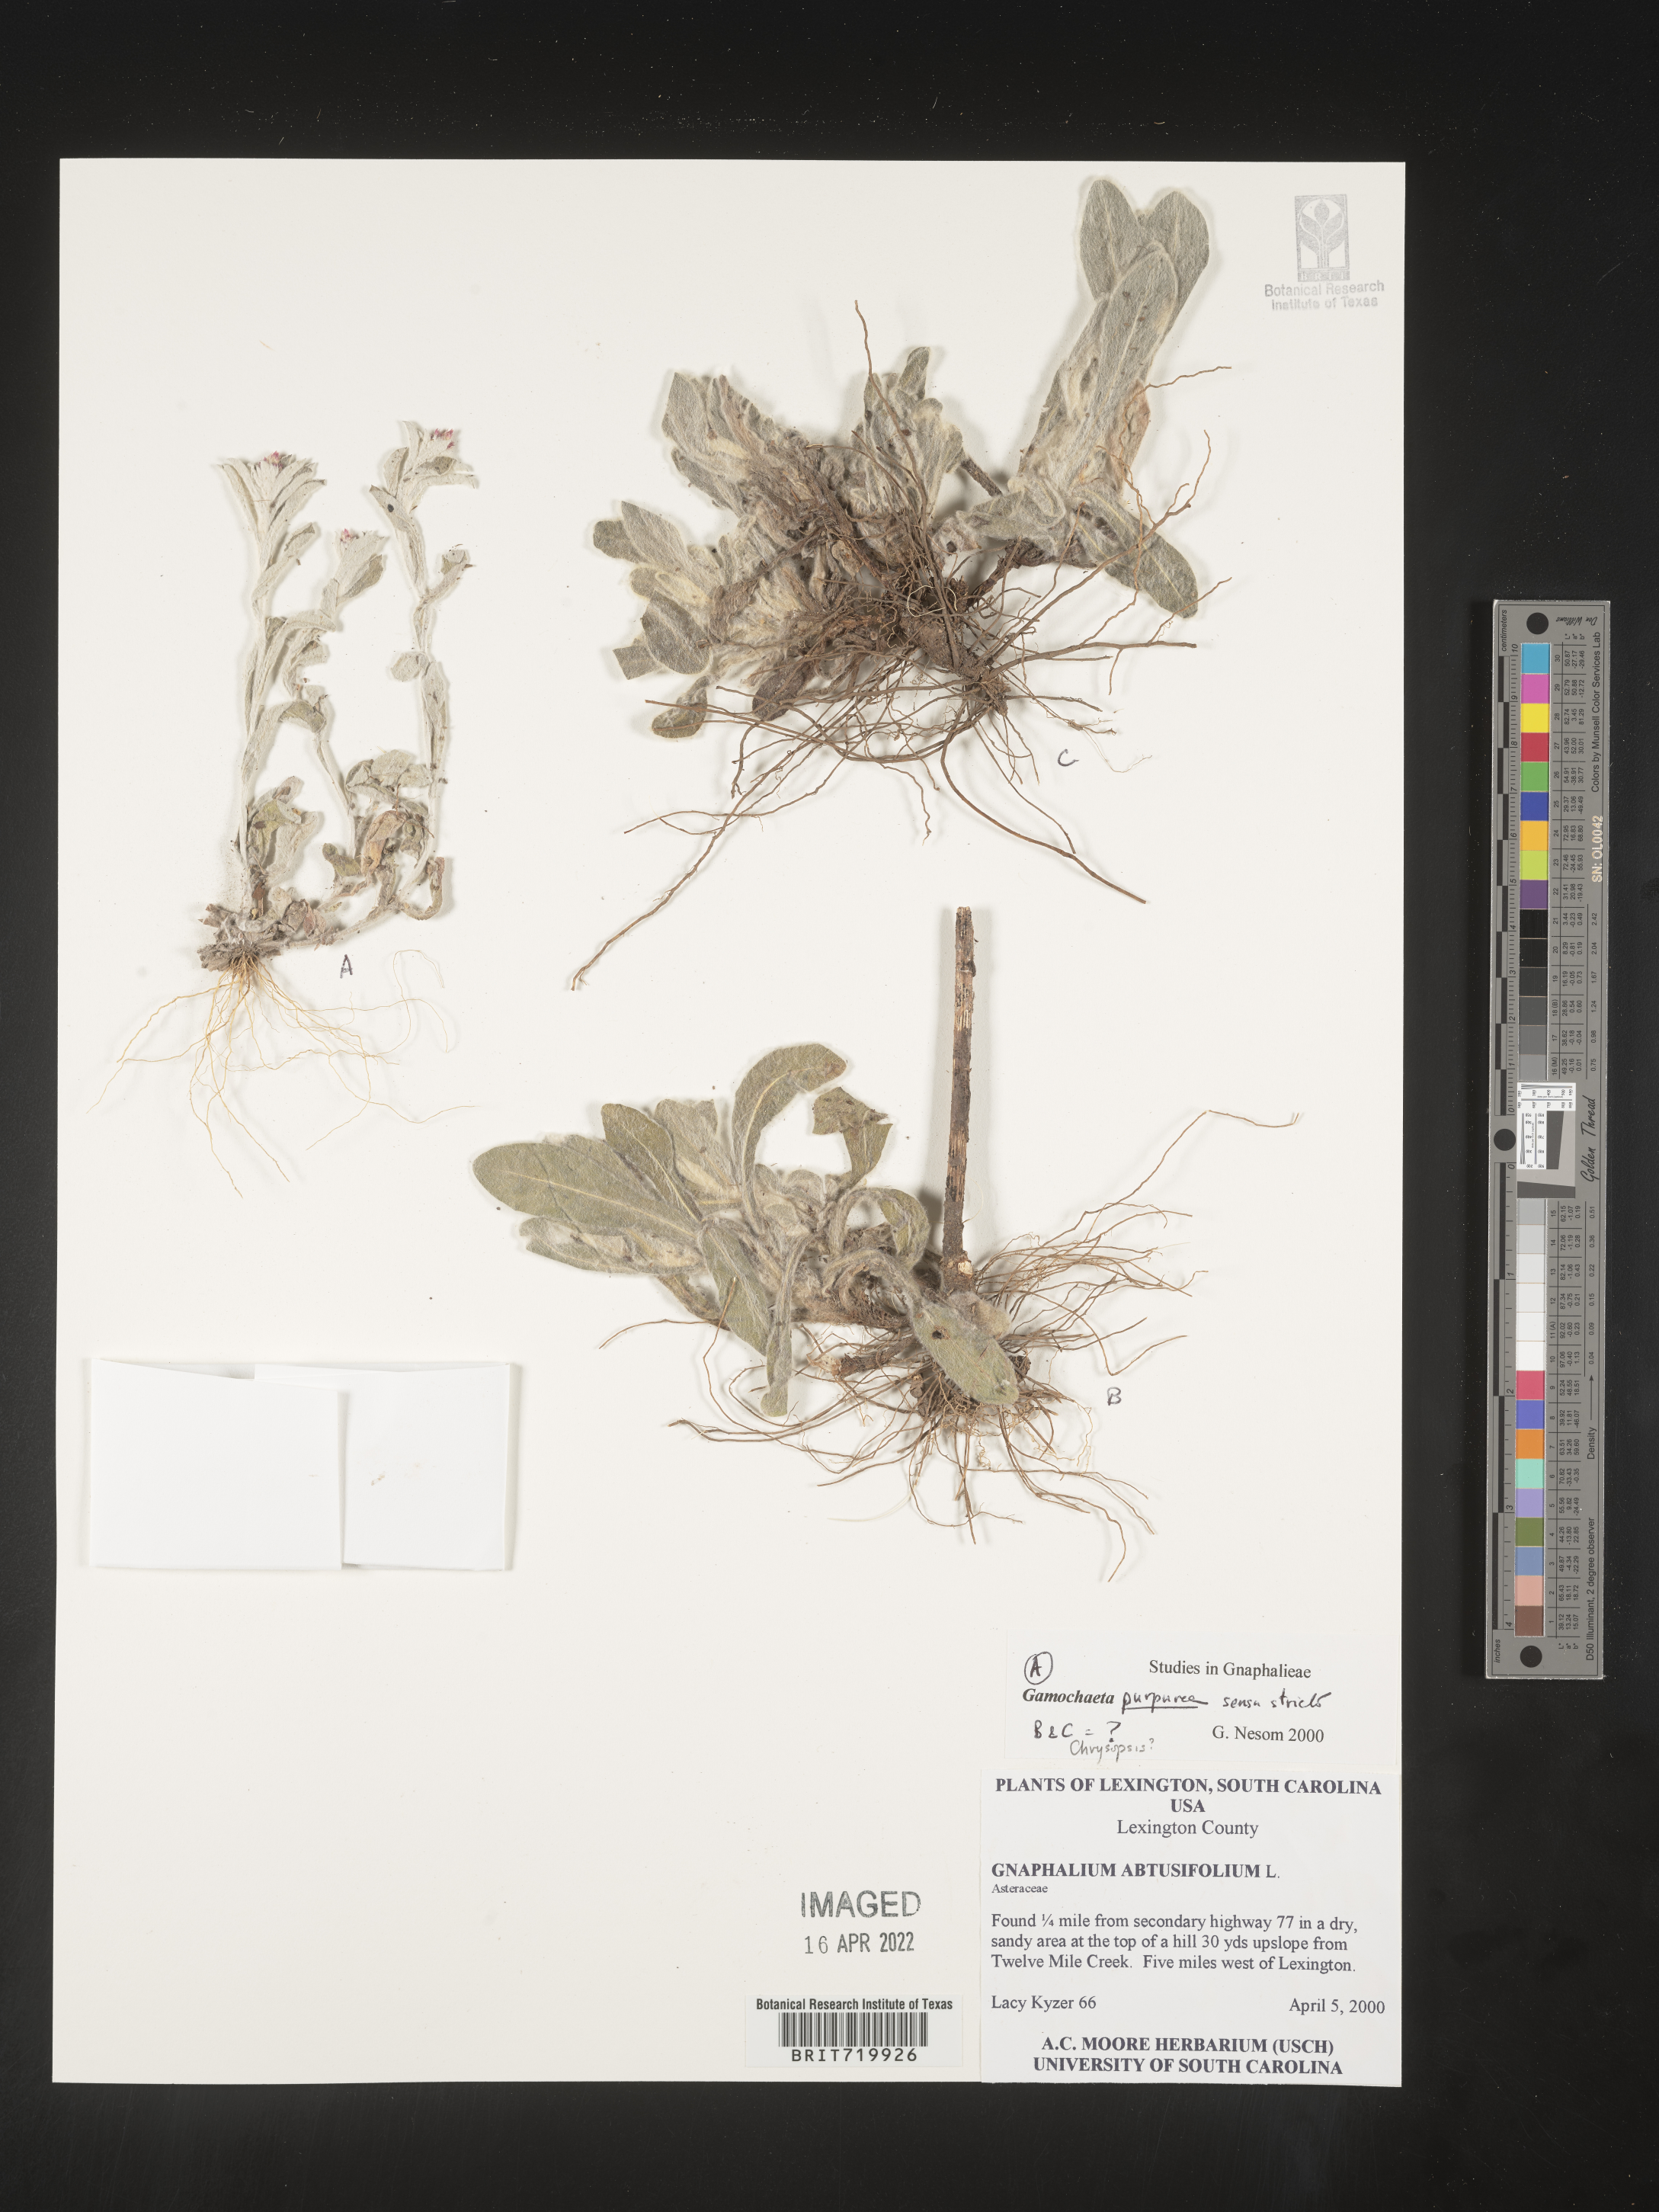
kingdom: Plantae
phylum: Tracheophyta
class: Magnoliopsida
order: Asterales
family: Asteraceae
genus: Gamochaeta
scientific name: Gamochaeta purpurea
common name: Purple cudweed
